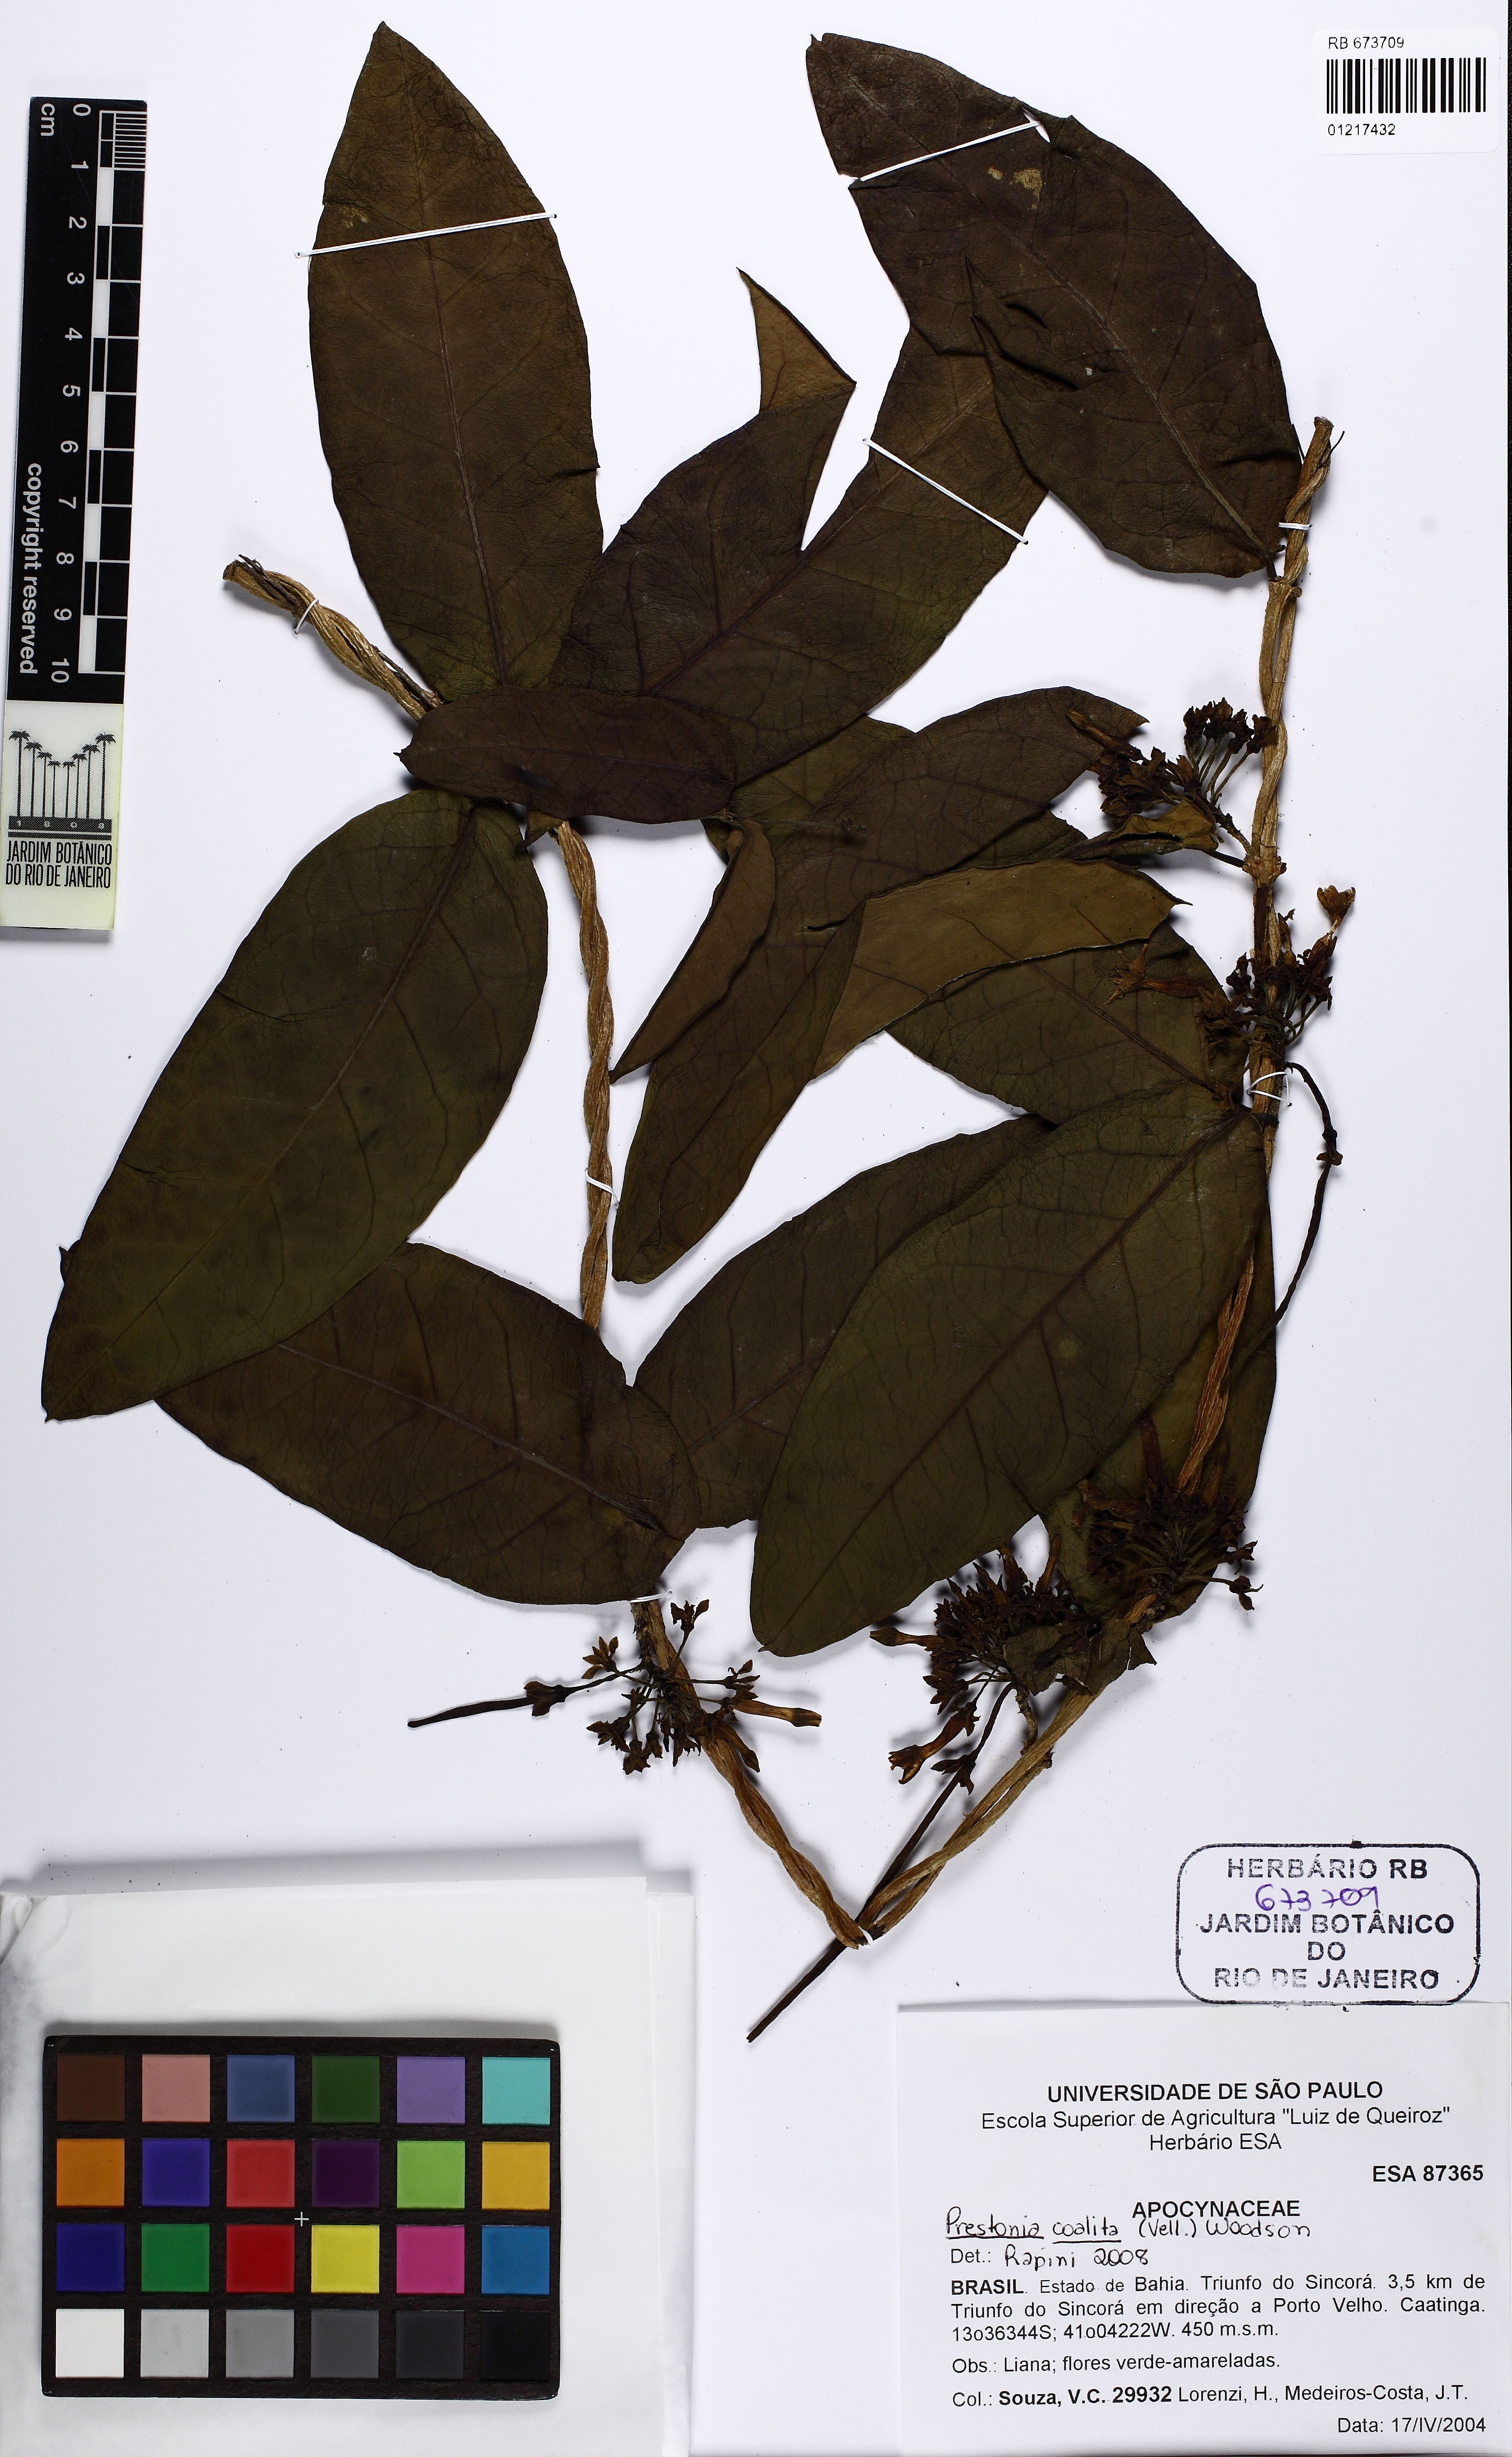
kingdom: Plantae
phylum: Tracheophyta
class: Magnoliopsida
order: Gentianales
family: Apocynaceae
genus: Prestonia
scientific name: Prestonia coalita
